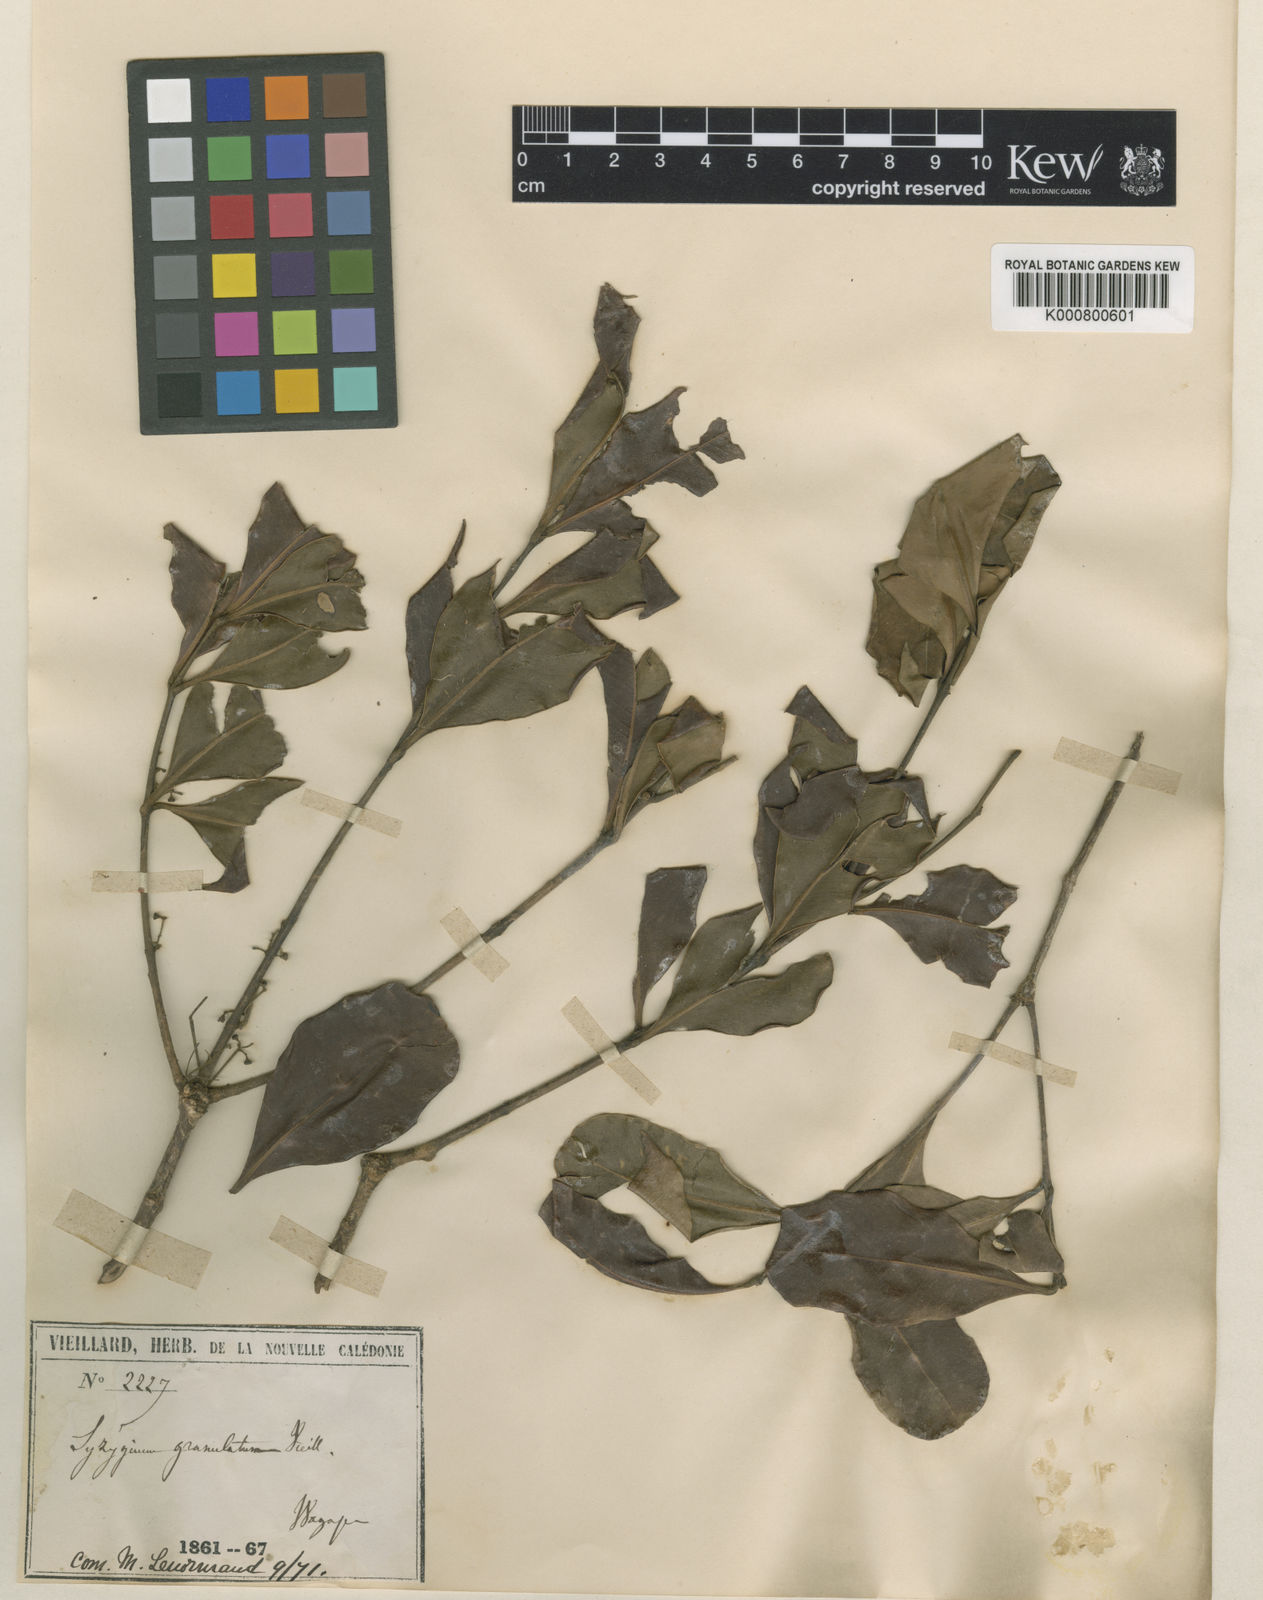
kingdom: Plantae
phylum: Tracheophyta
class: Magnoliopsida
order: Myrtales
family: Myrtaceae
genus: Syzygium
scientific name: Syzygium
